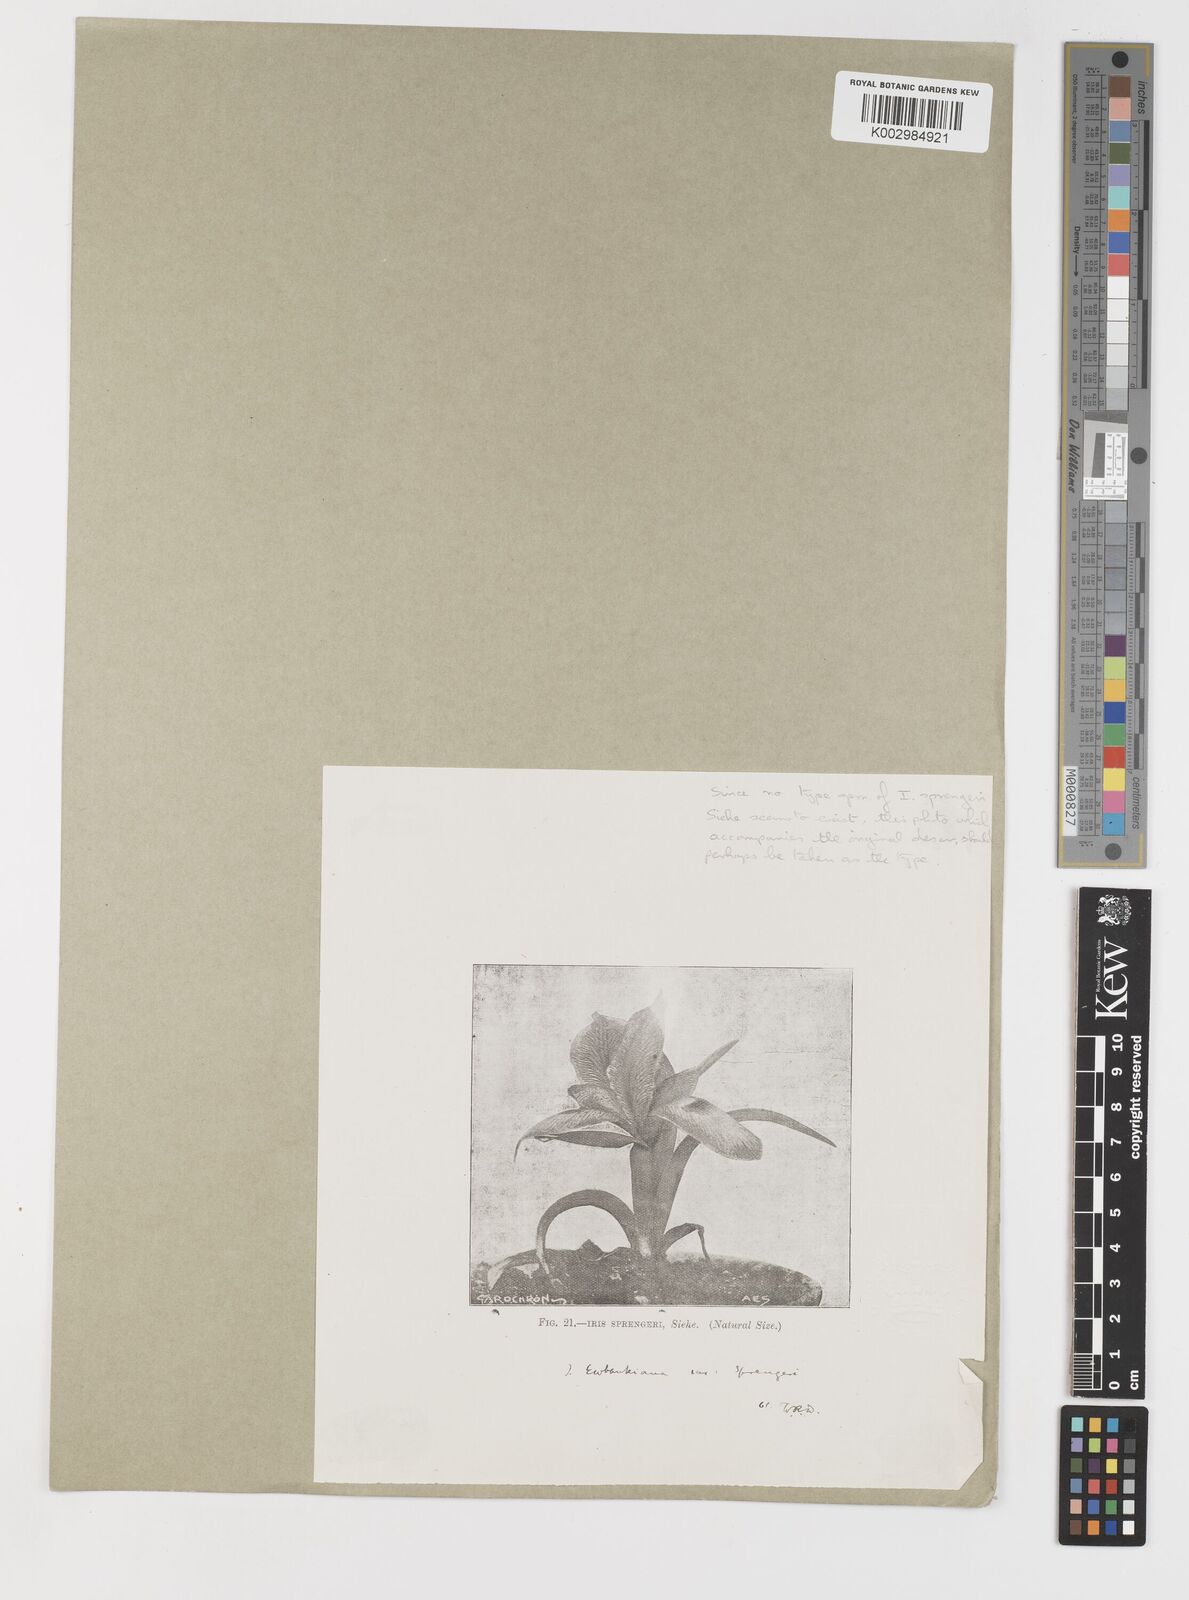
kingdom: Plantae
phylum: Tracheophyta
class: Liliopsida
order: Asparagales
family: Iridaceae
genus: Iris
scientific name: Iris sprengeri
